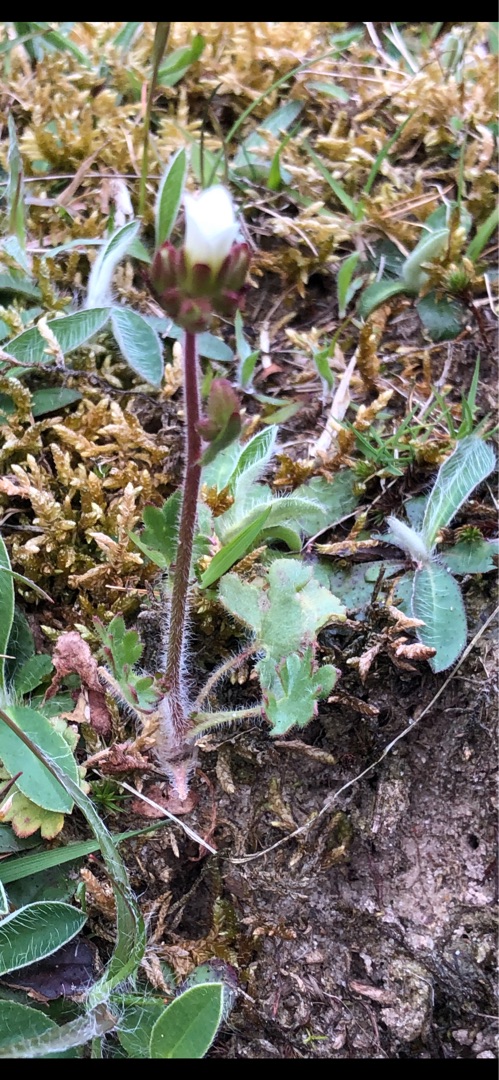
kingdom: Plantae
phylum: Tracheophyta
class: Magnoliopsida
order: Saxifragales
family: Saxifragaceae
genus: Saxifraga
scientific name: Saxifraga granulata
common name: Kornet stenbræk
